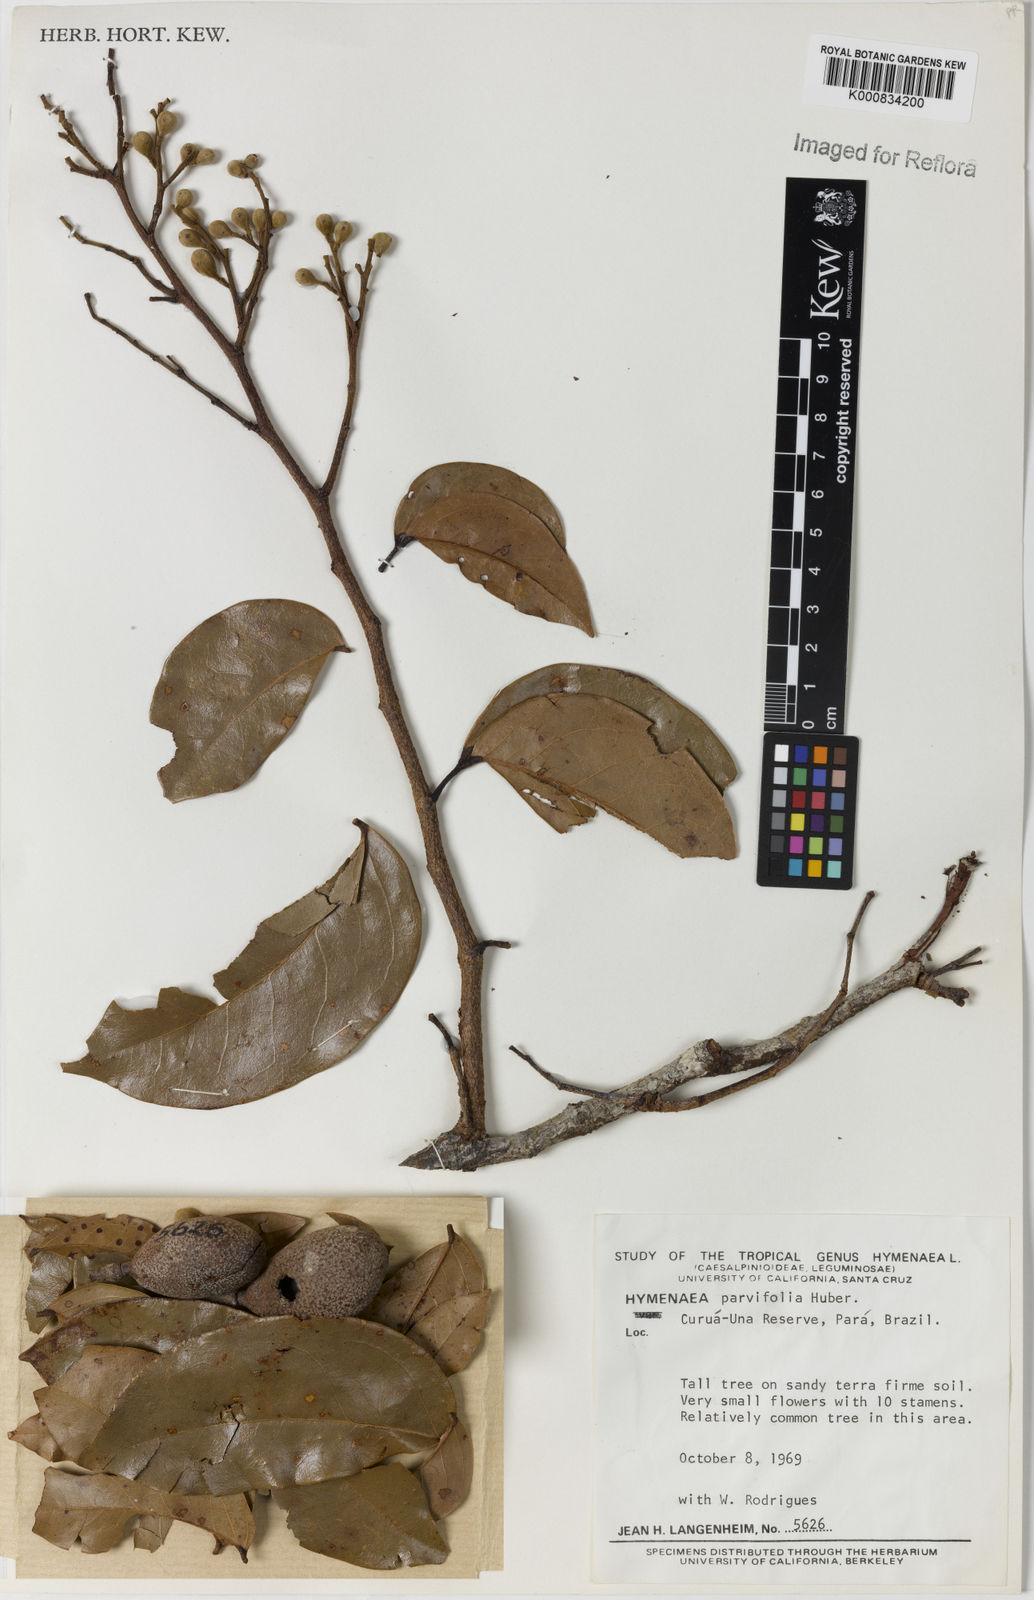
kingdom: Plantae
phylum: Tracheophyta
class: Magnoliopsida
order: Fabales
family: Fabaceae
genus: Hymenaea
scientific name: Hymenaea parvifolia
